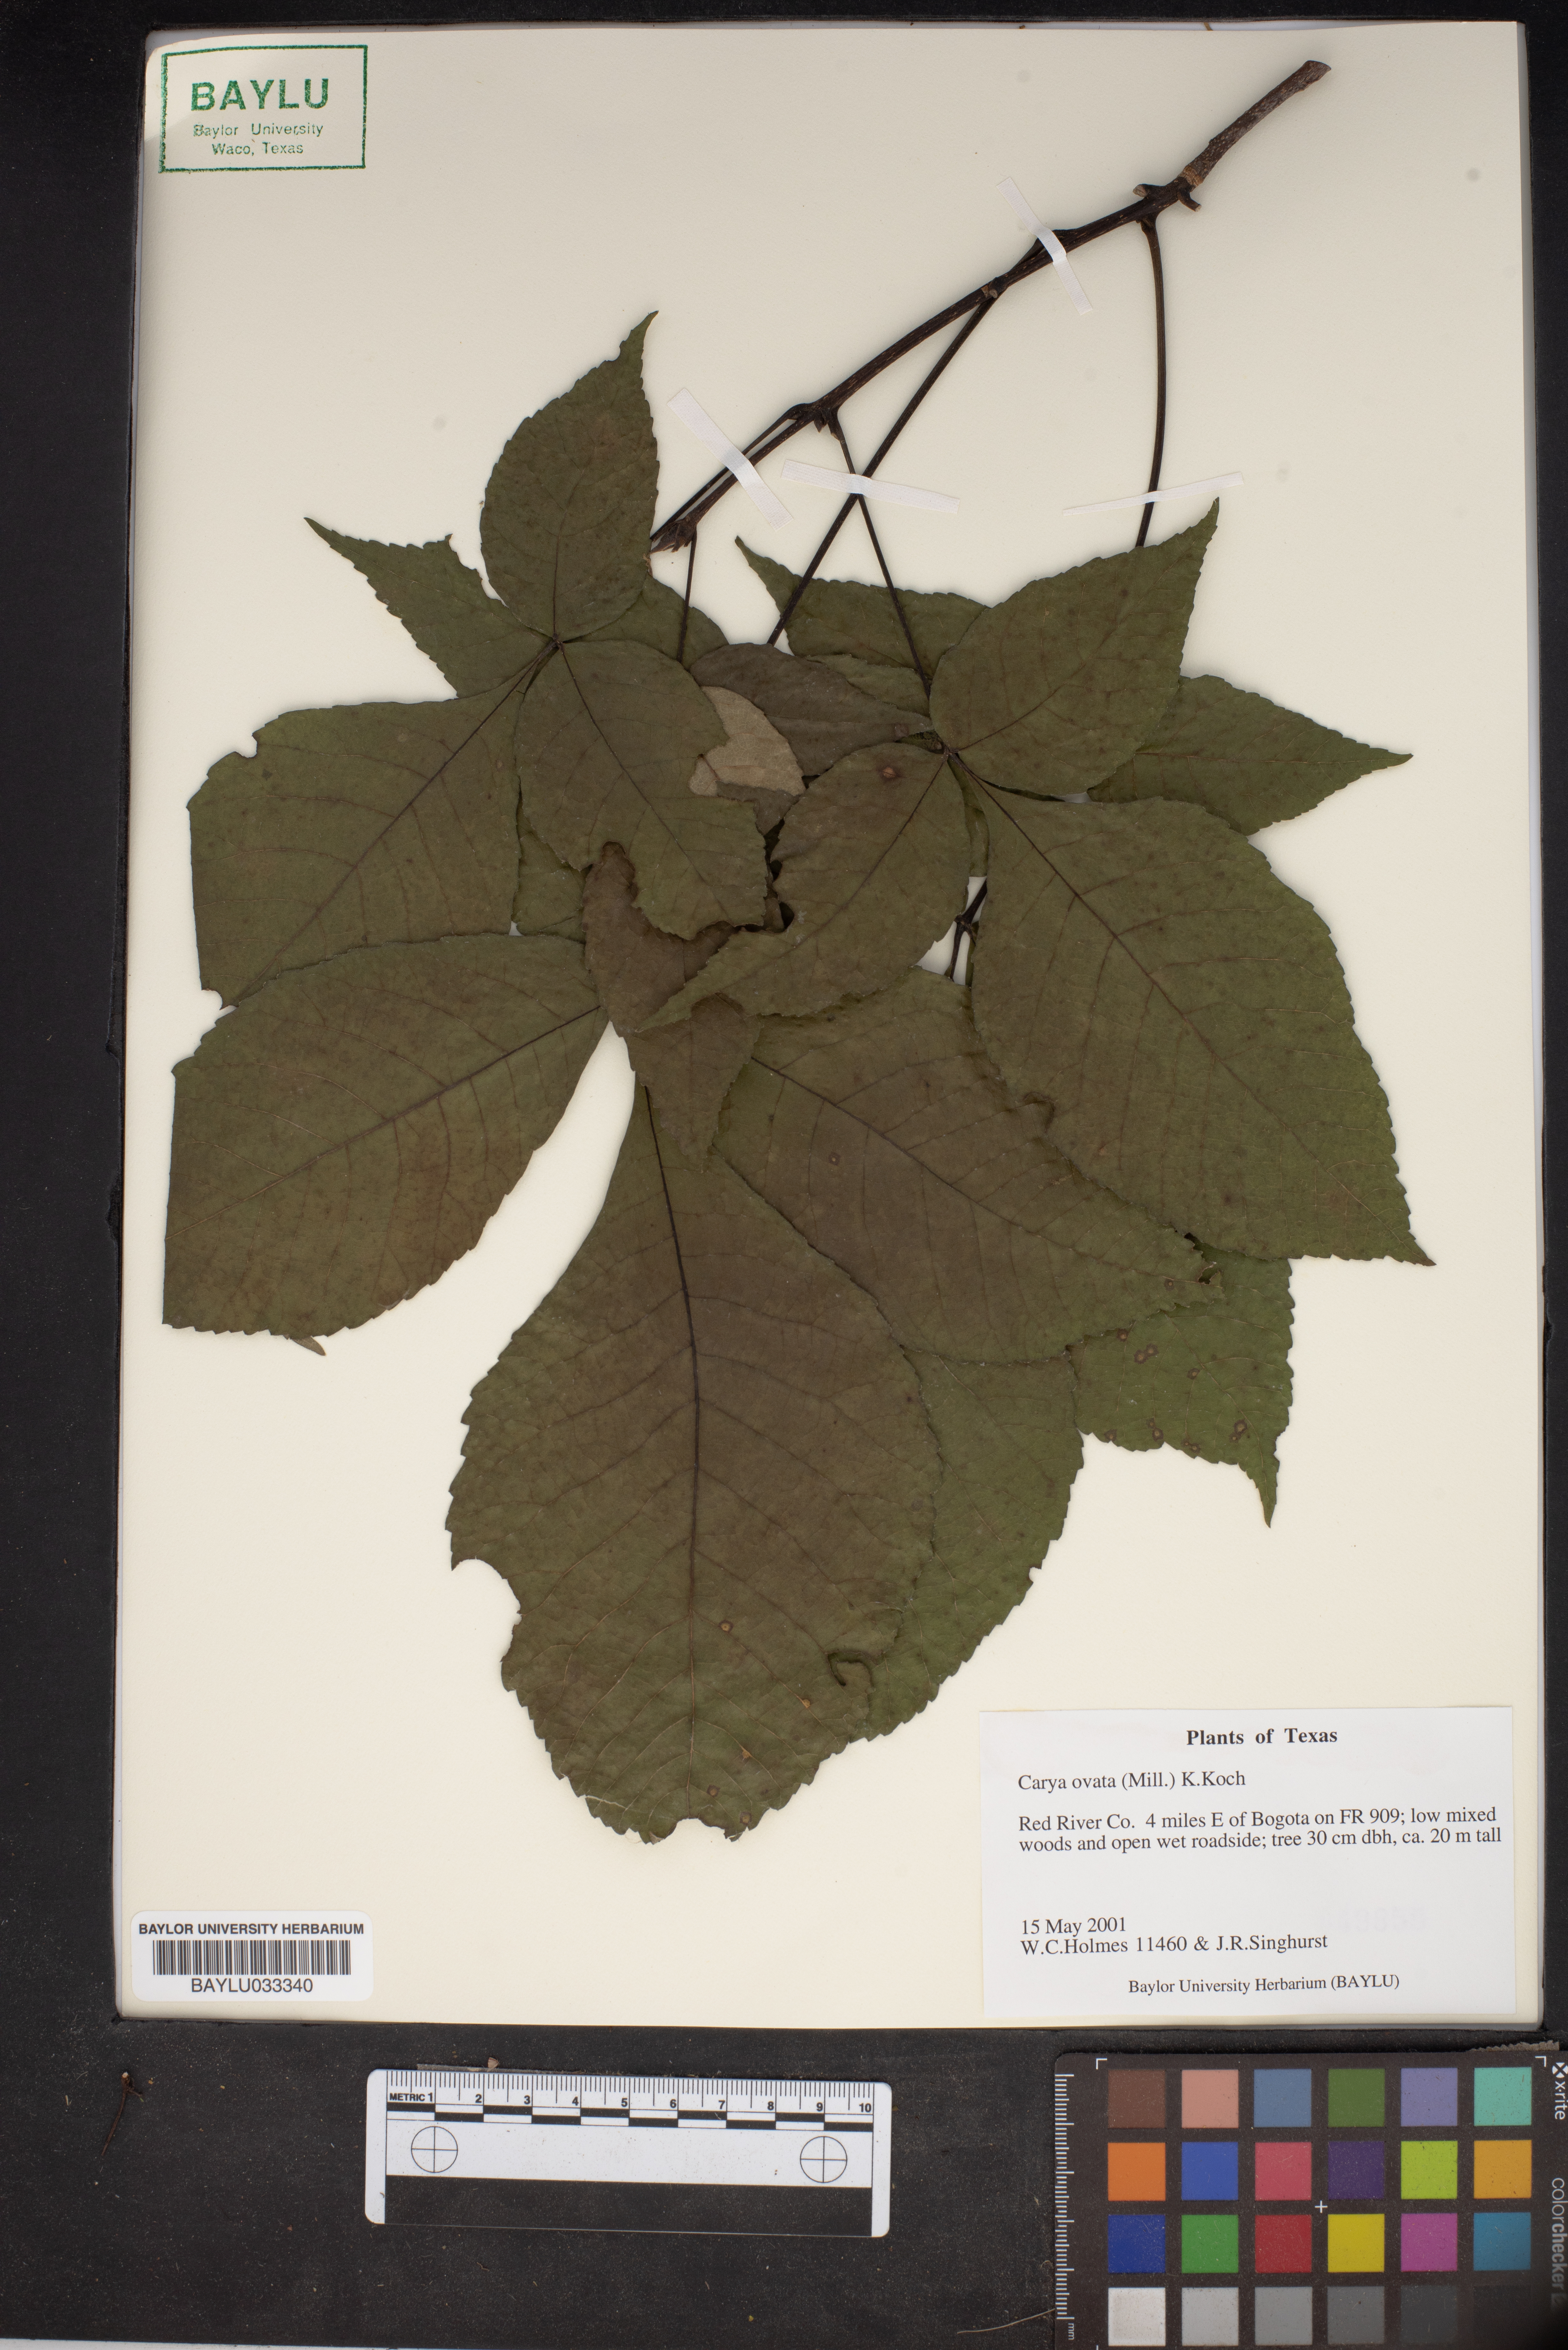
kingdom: Plantae
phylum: Tracheophyta
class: Magnoliopsida
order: Fagales
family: Juglandaceae
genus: Carya
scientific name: Carya ovata
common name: Shagbark hickory
